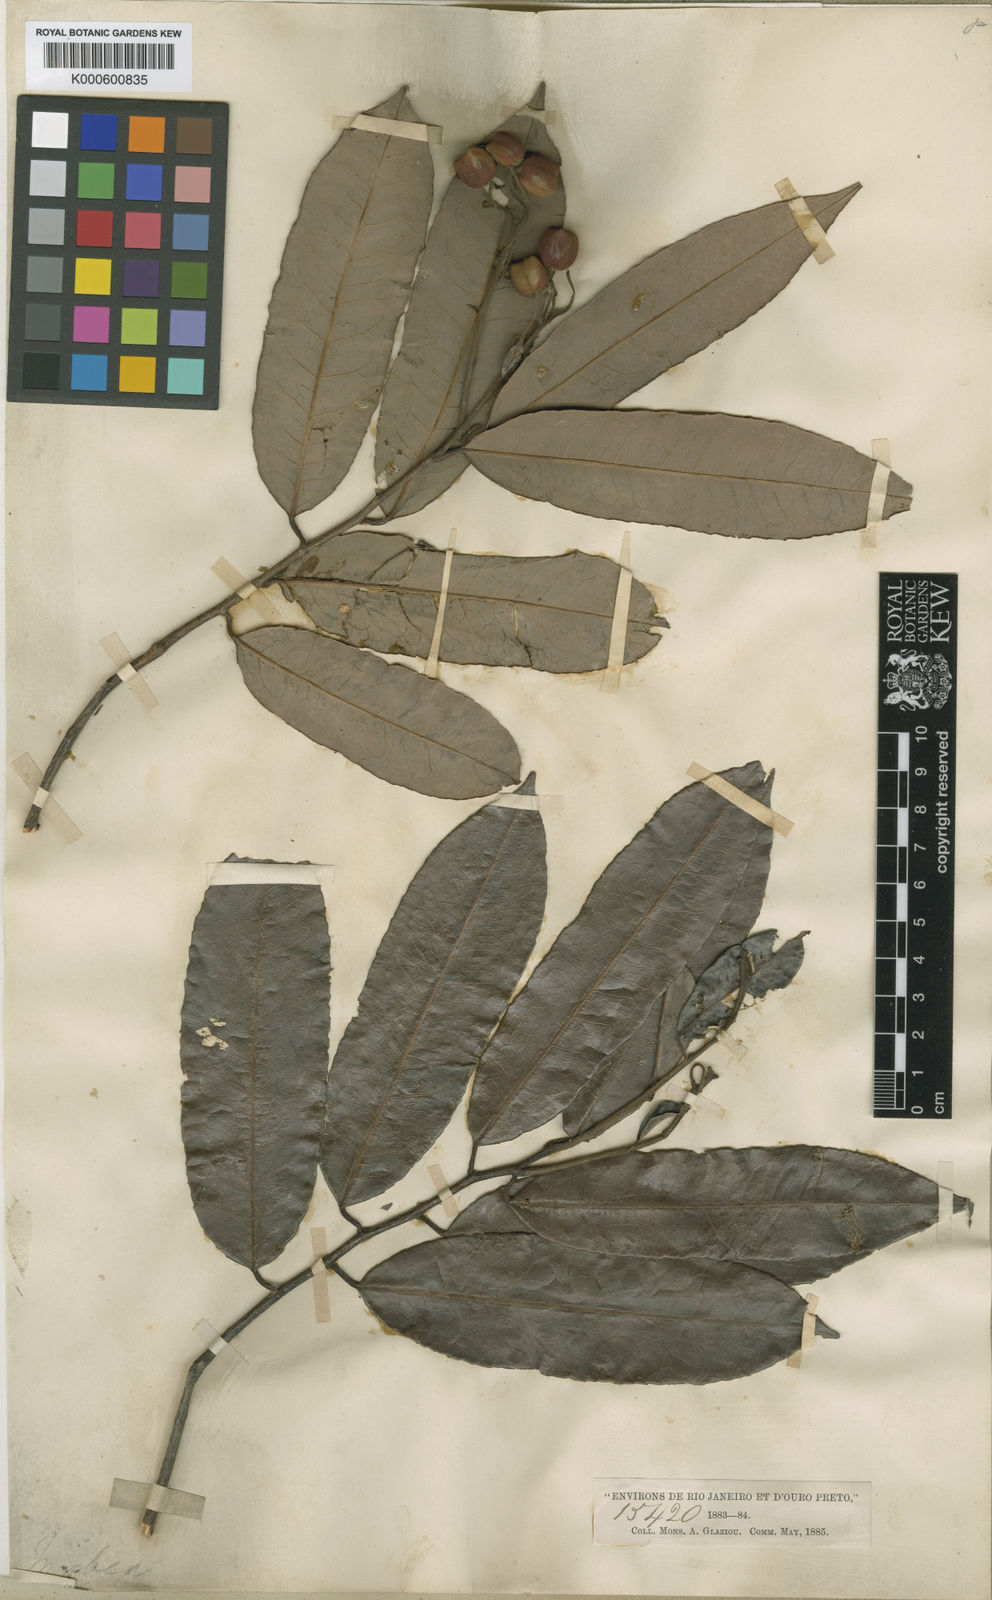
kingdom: Plantae
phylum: Tracheophyta
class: Magnoliopsida
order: Malpighiales
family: Euphorbiaceae
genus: Mabea
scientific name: Mabea glaziovii
